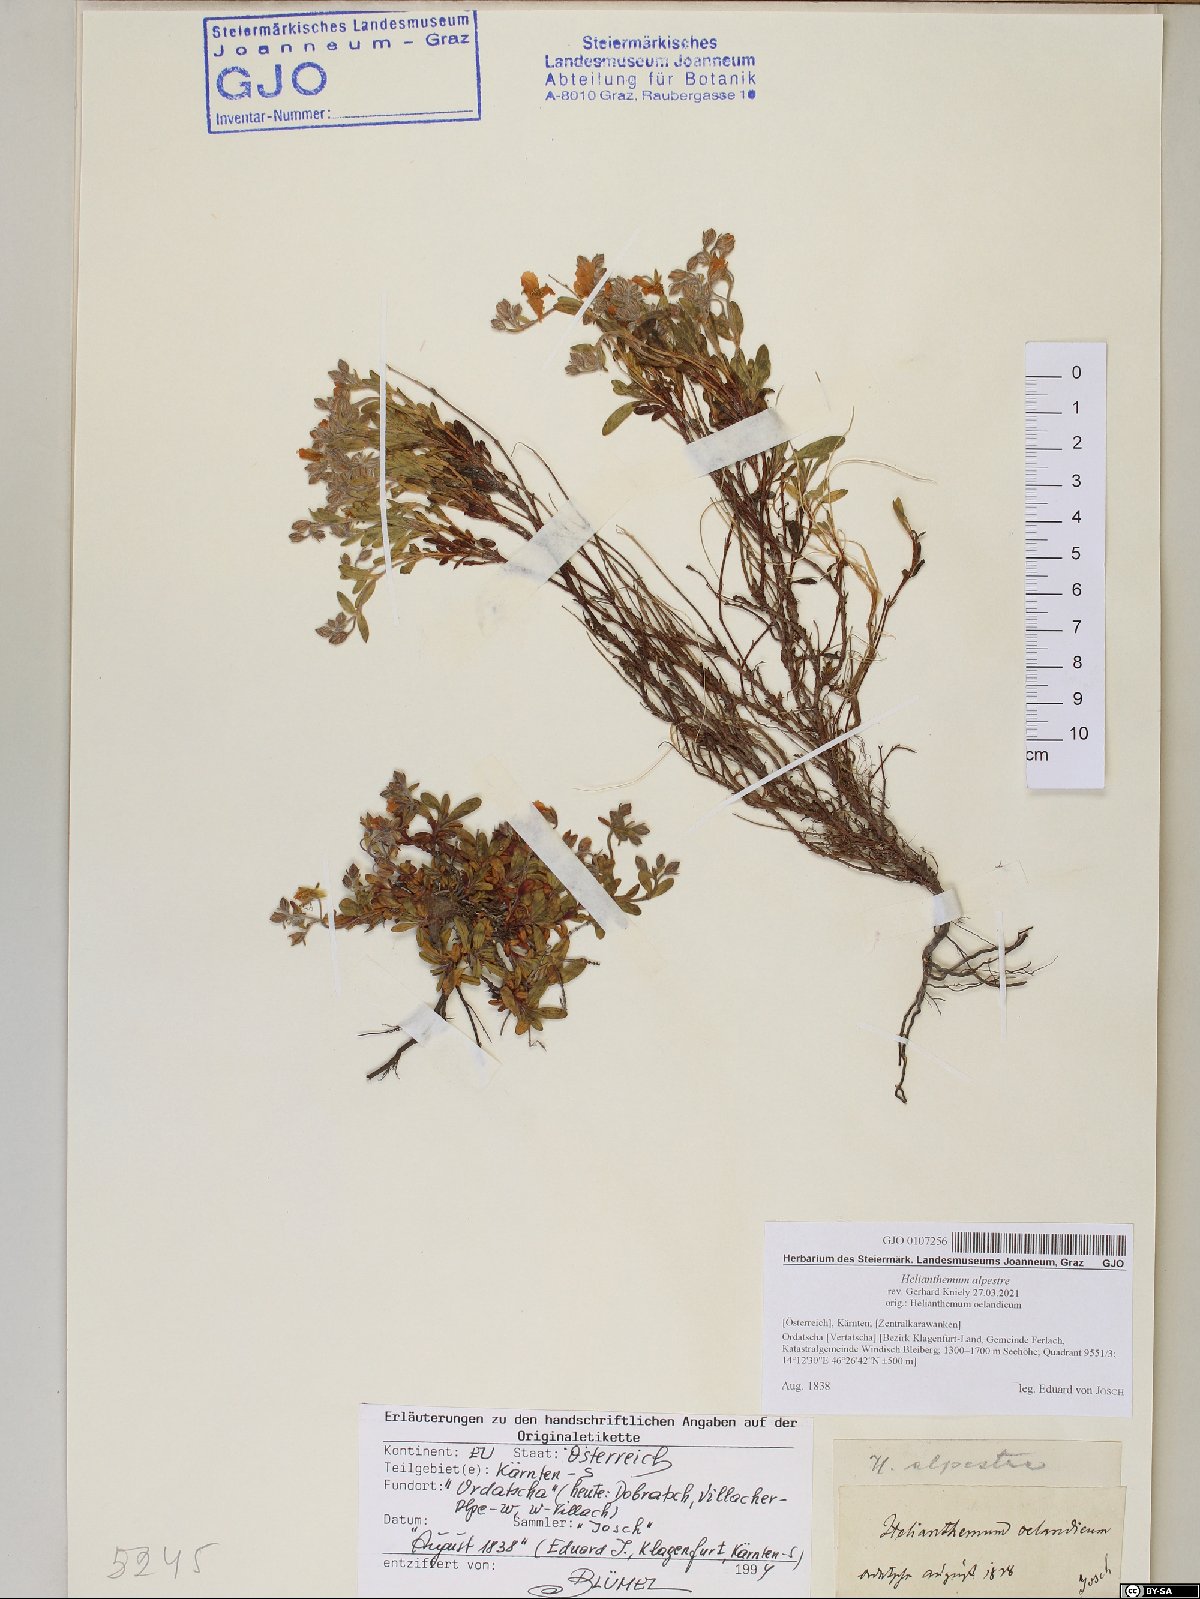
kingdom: Plantae
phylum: Tracheophyta
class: Magnoliopsida
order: Malvales
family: Cistaceae
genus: Helianthemum
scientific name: Helianthemum alpestre
